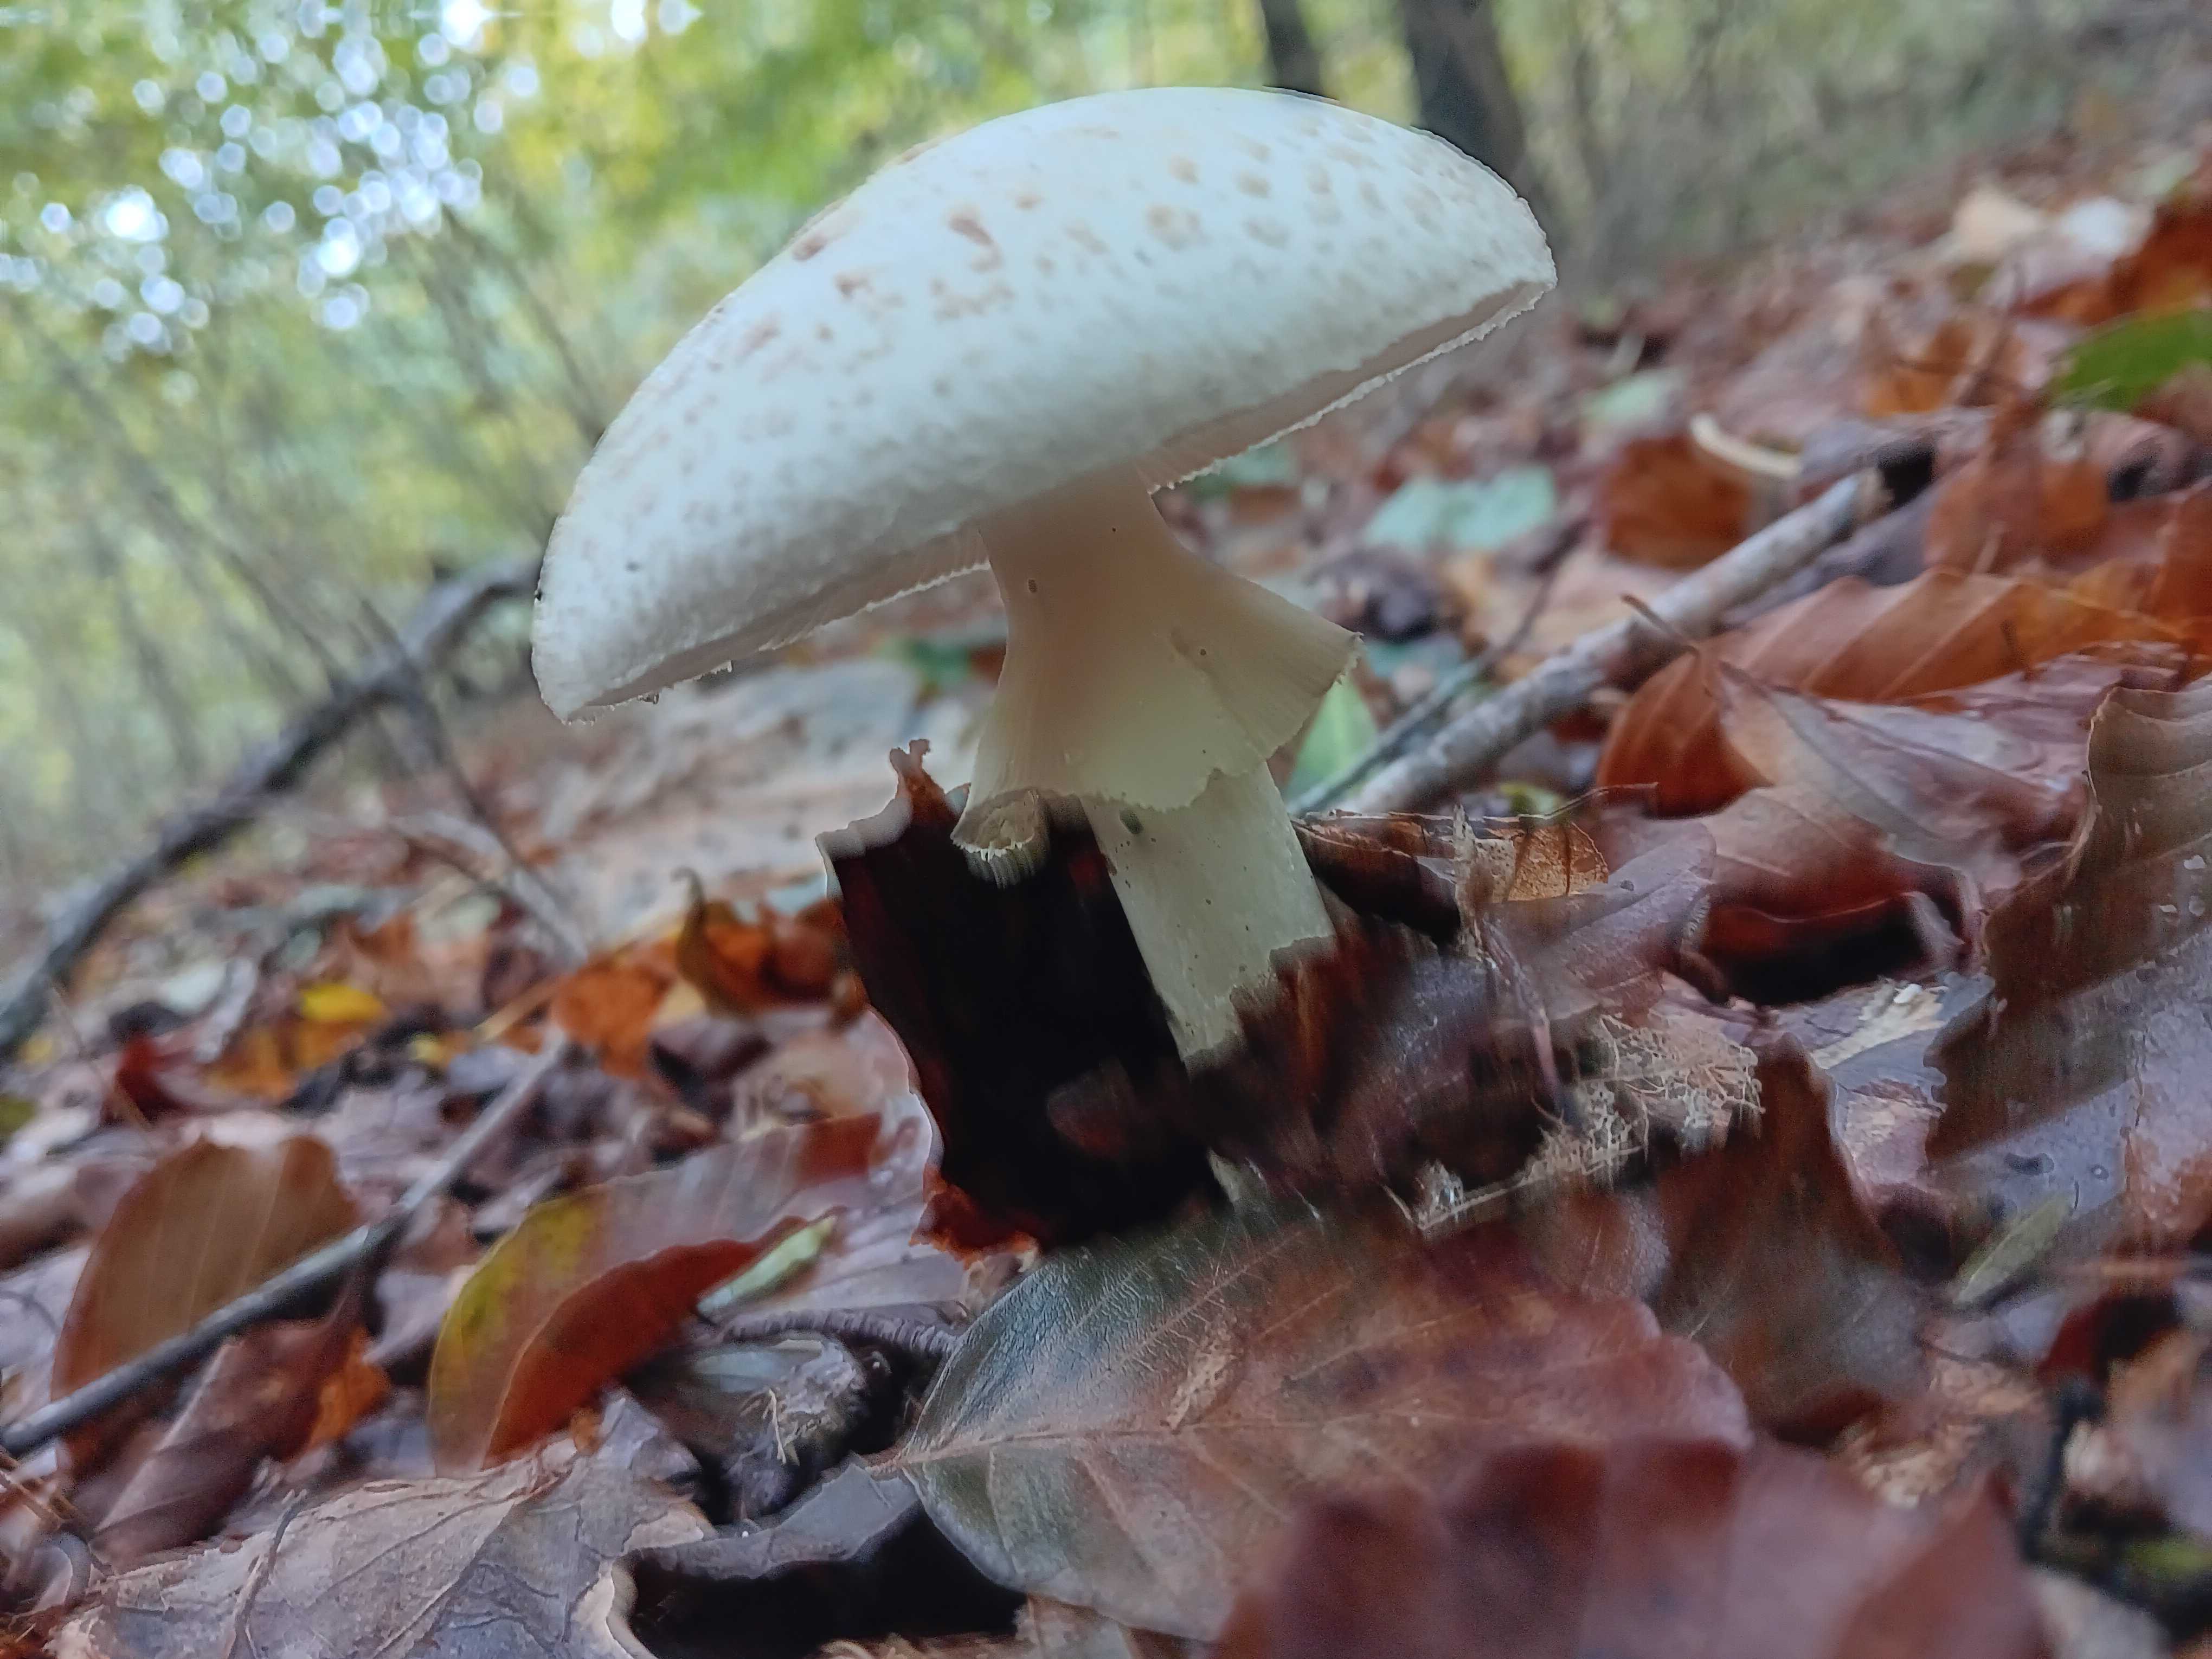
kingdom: Fungi
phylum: Basidiomycota
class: Agaricomycetes
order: Agaricales
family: Amanitaceae
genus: Amanita
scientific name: Amanita citrina
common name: kugleknoldet fluesvamp
